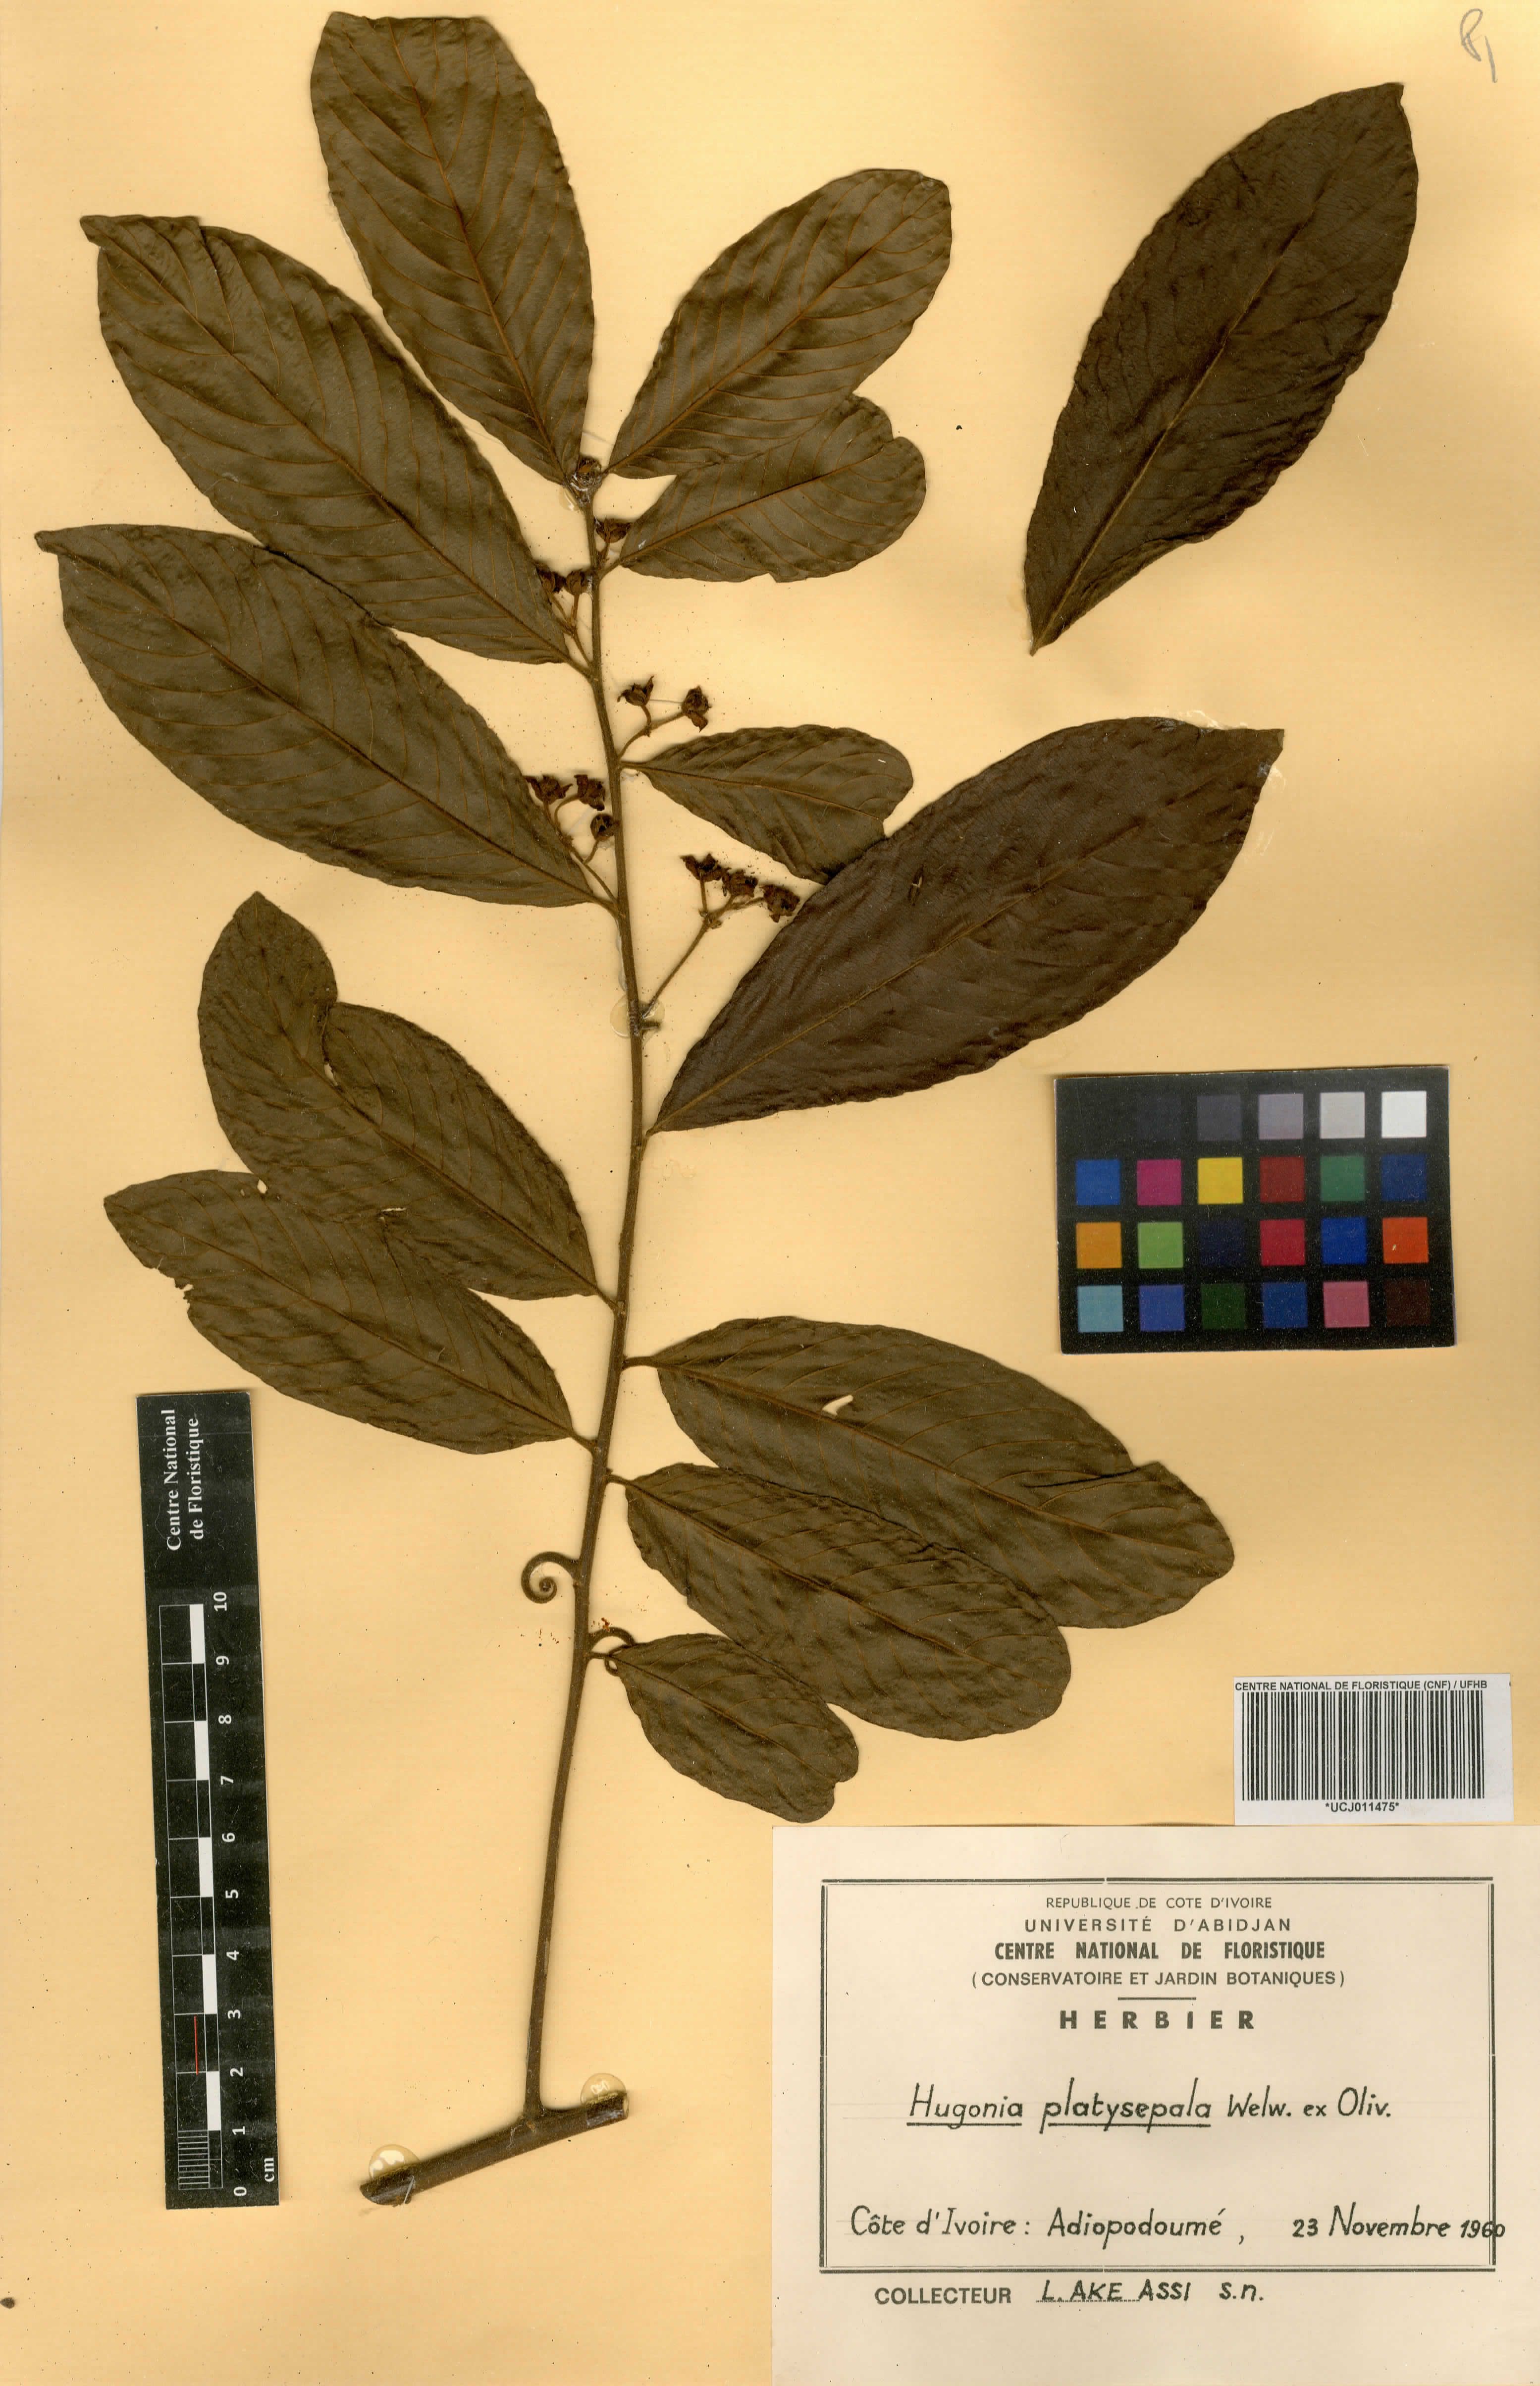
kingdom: Plantae
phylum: Tracheophyta
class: Magnoliopsida
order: Malpighiales
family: Linaceae
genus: Hugonia
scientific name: Hugonia platysepala
